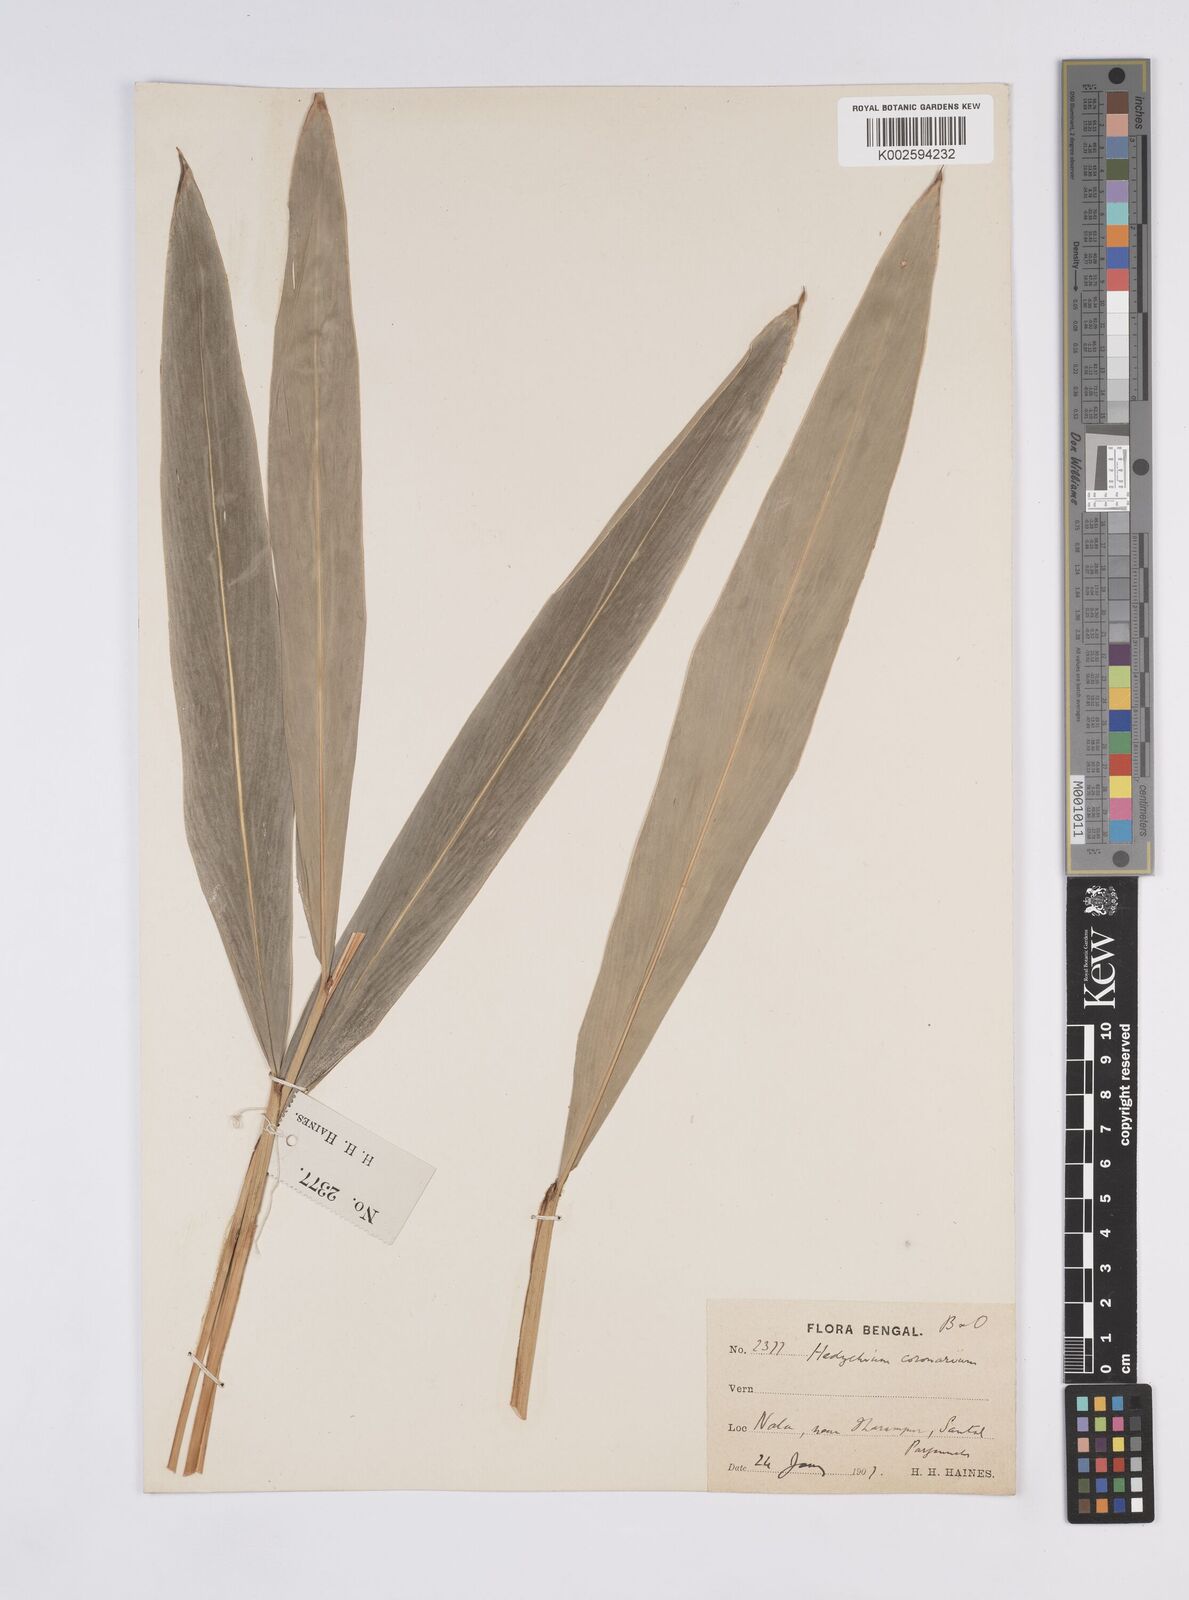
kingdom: Plantae
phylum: Tracheophyta
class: Liliopsida
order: Zingiberales
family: Zingiberaceae
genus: Hedychium
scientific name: Hedychium coronarium
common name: White garland-lily
